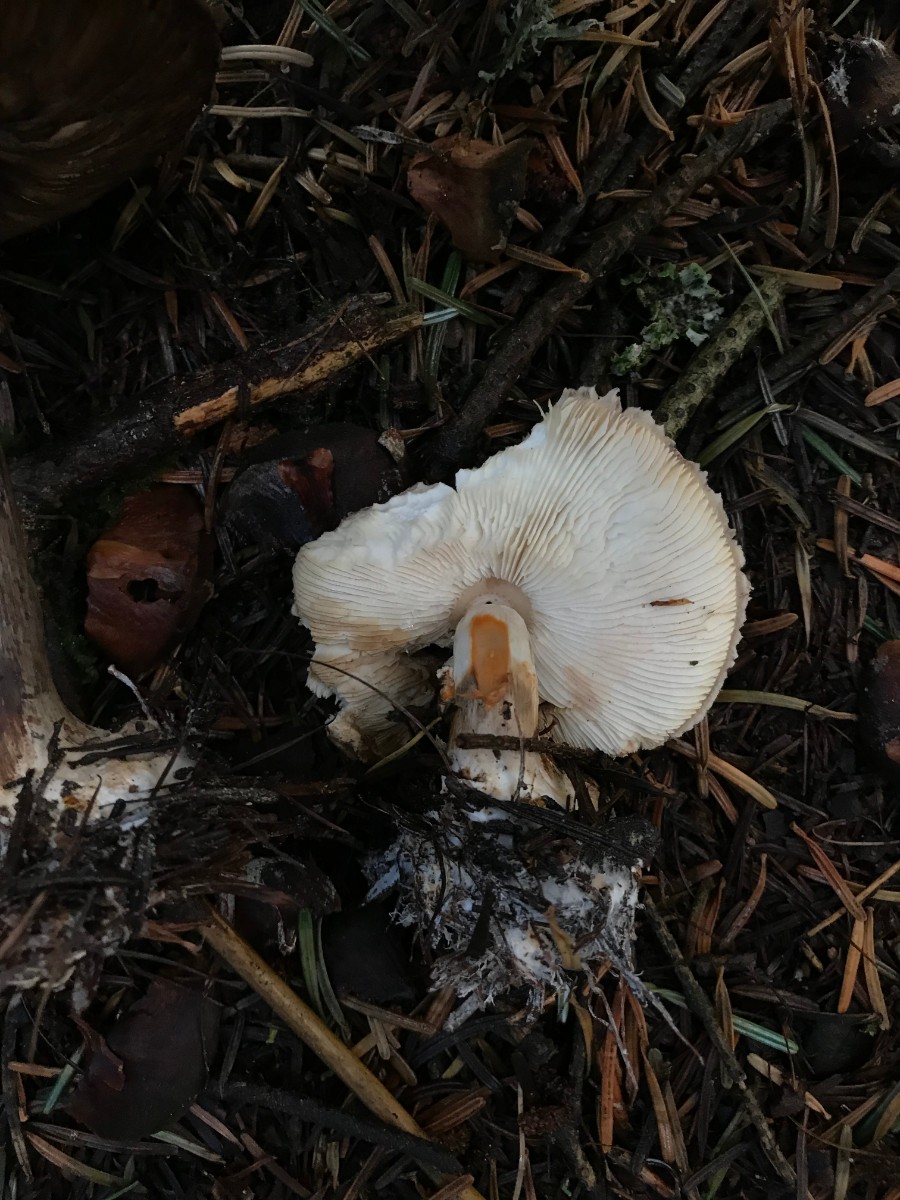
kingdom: Fungi
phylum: Basidiomycota
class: Agaricomycetes
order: Agaricales
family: Agaricaceae
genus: Chlorophyllum
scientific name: Chlorophyllum olivieri
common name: almindelig rabarberhat
